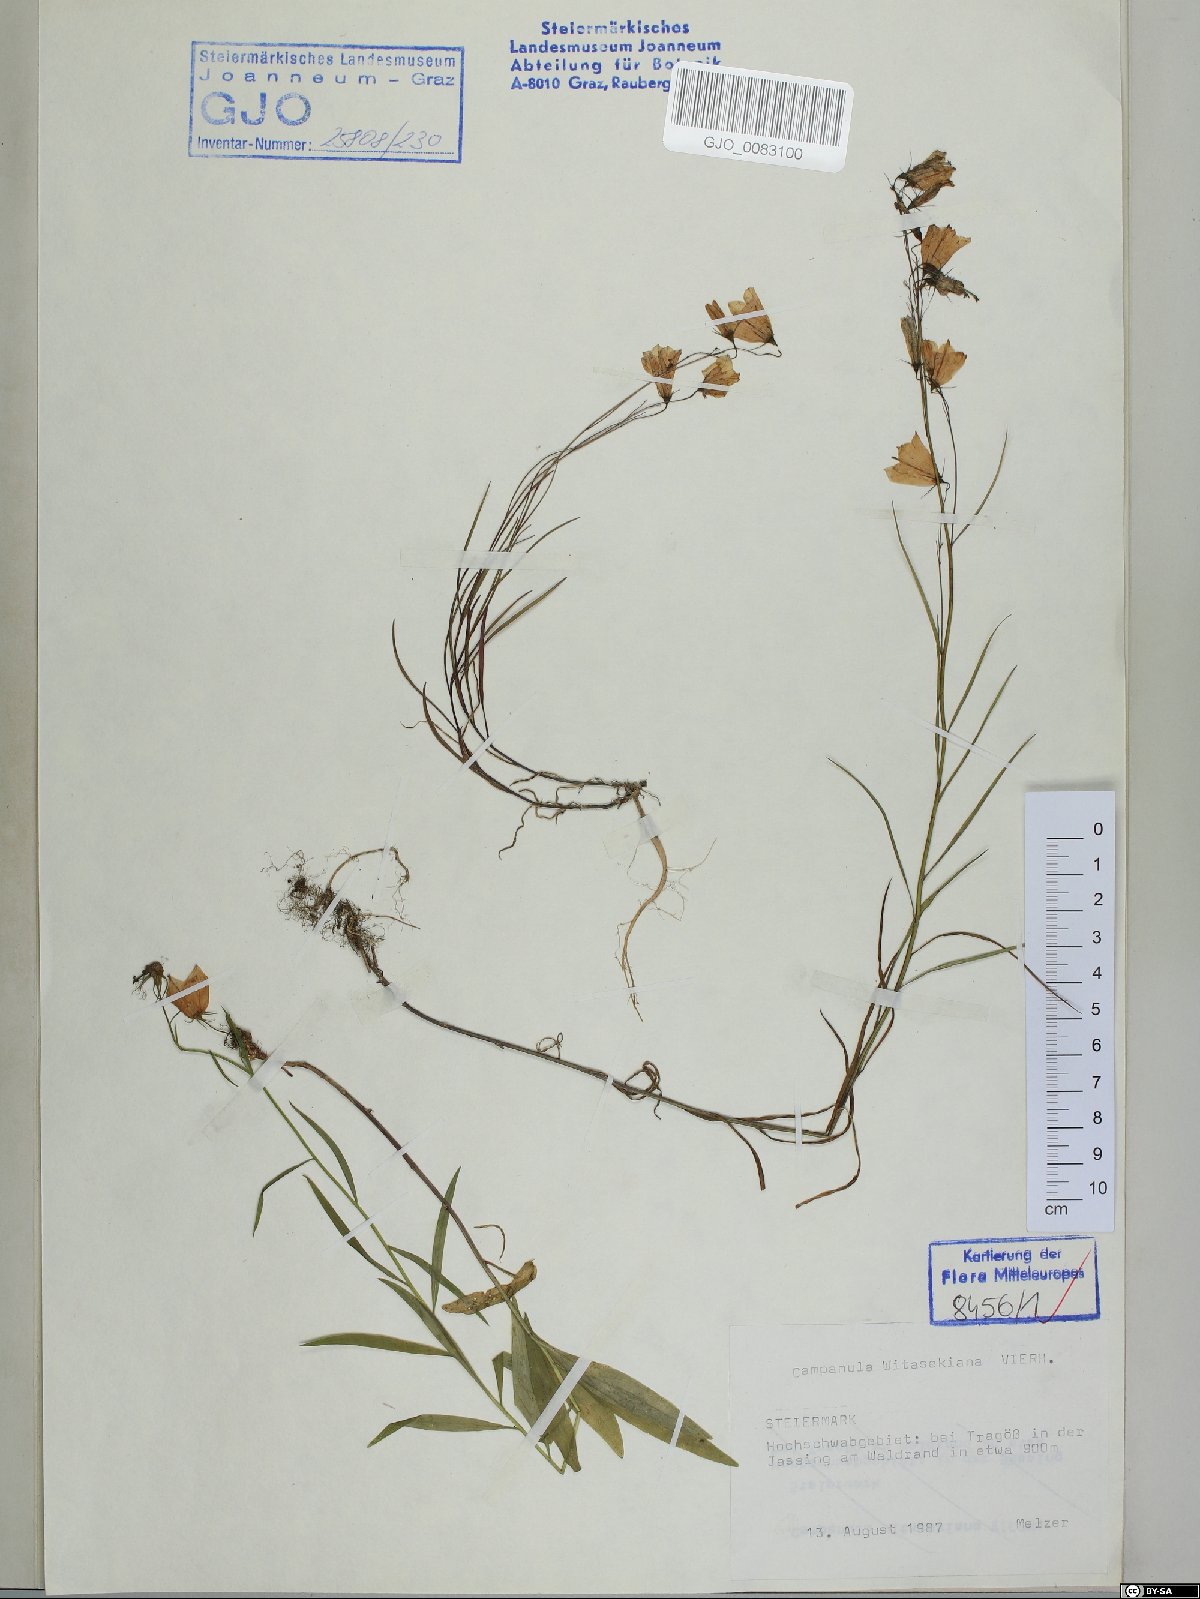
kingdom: Plantae
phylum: Tracheophyta
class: Magnoliopsida
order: Asterales
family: Campanulaceae
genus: Campanula
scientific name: Campanula witasekiana
